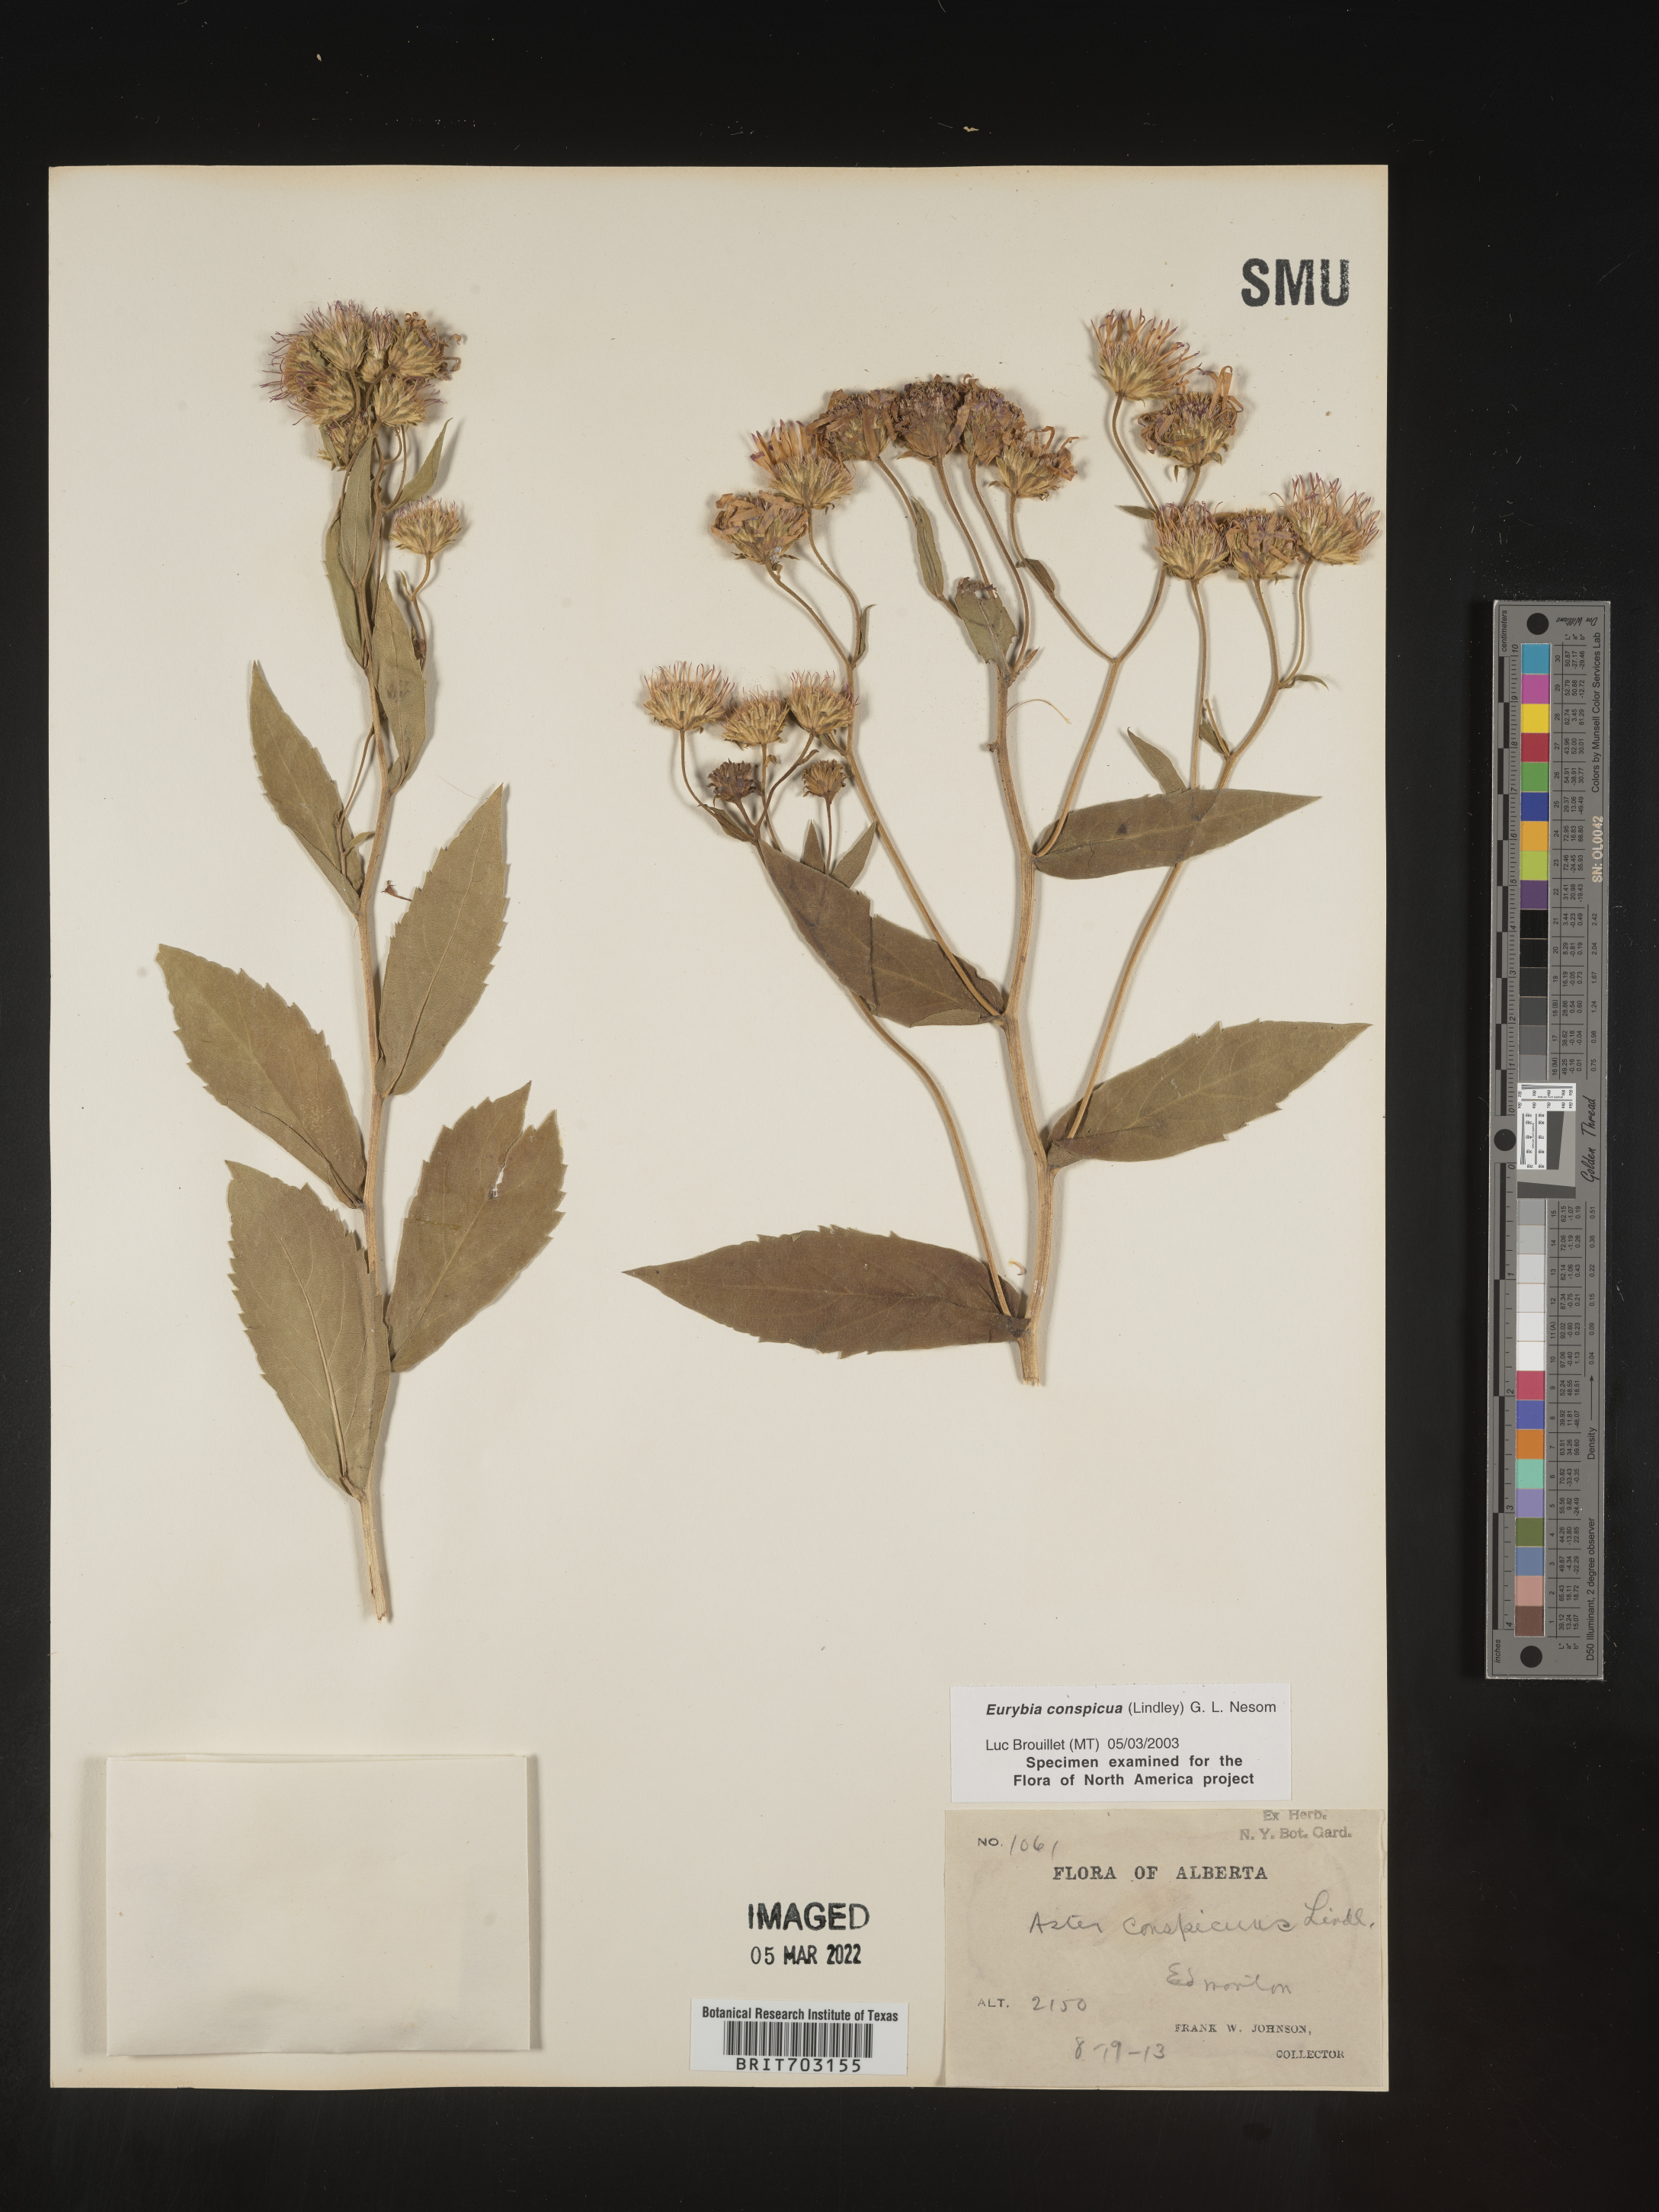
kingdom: Plantae
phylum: Tracheophyta
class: Magnoliopsida
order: Asterales
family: Asteraceae
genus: Eurybia
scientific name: Eurybia conspicua
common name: Showy aster
